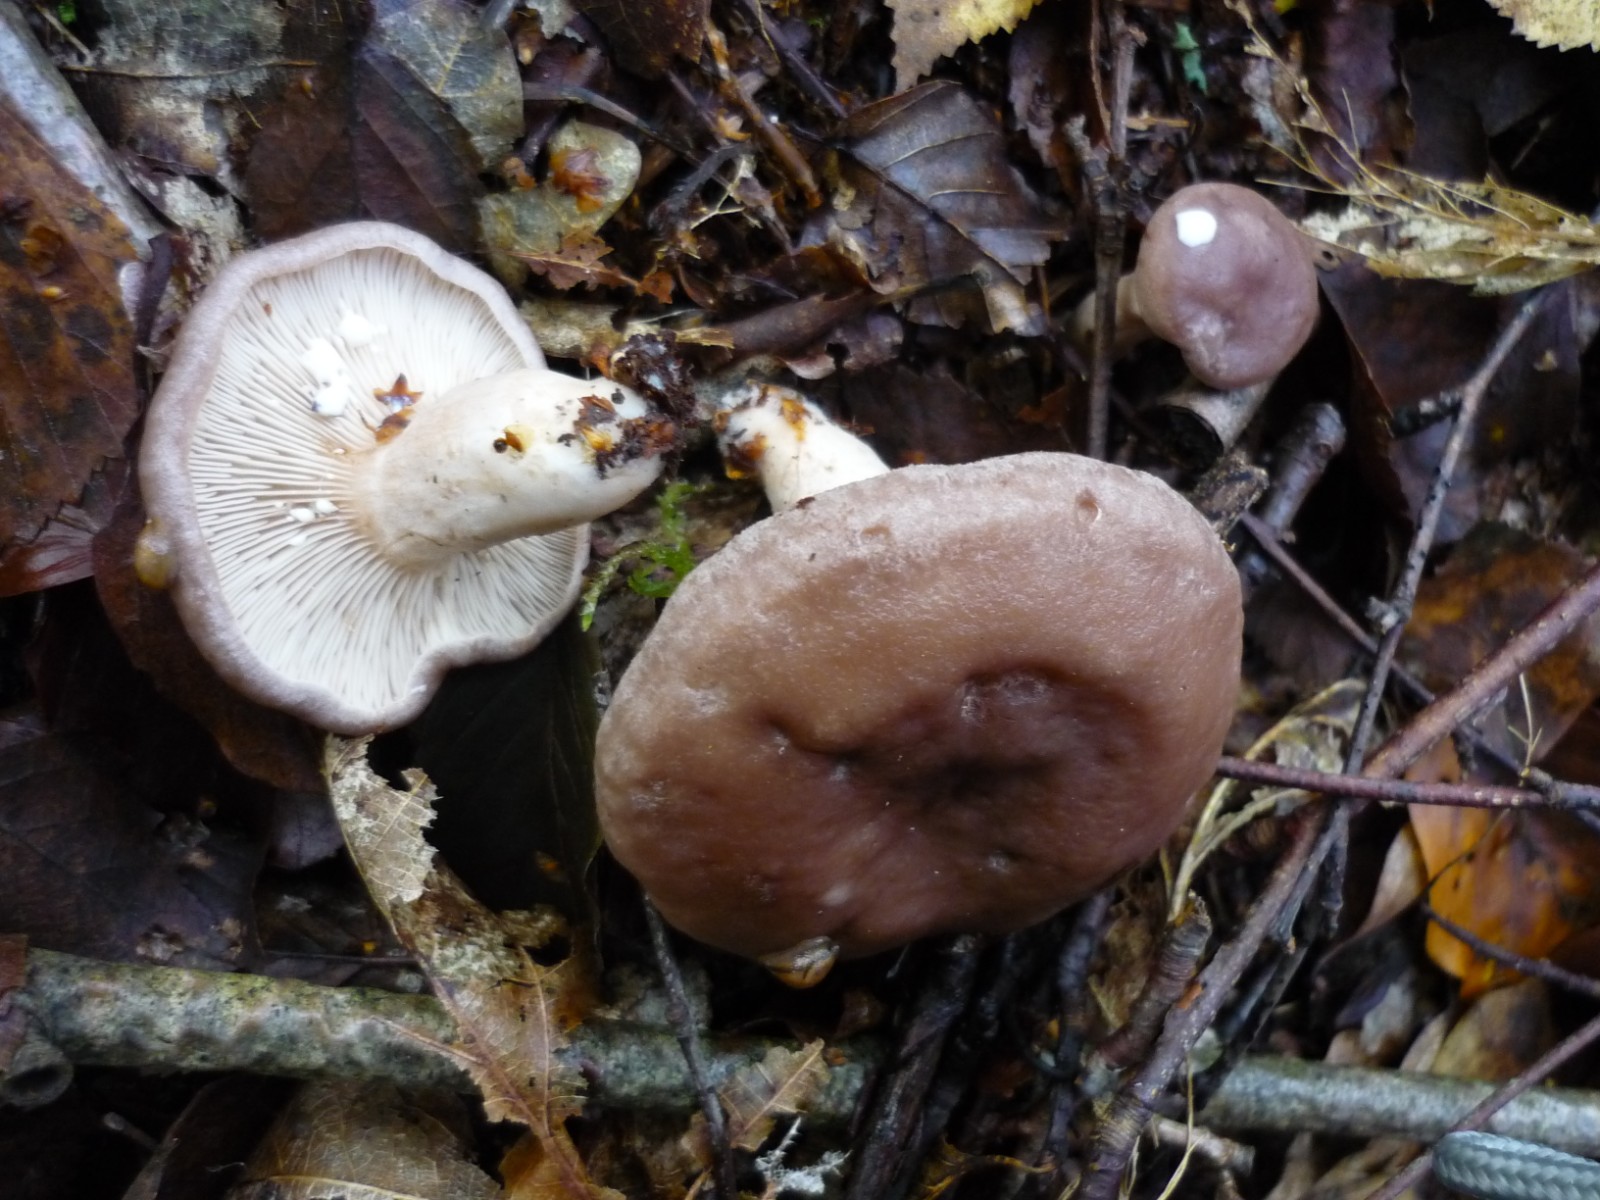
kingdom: Fungi
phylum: Basidiomycota
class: Agaricomycetes
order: Russulales
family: Russulaceae
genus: Lactarius
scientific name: Lactarius vietus
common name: violetgrå mælkehat
